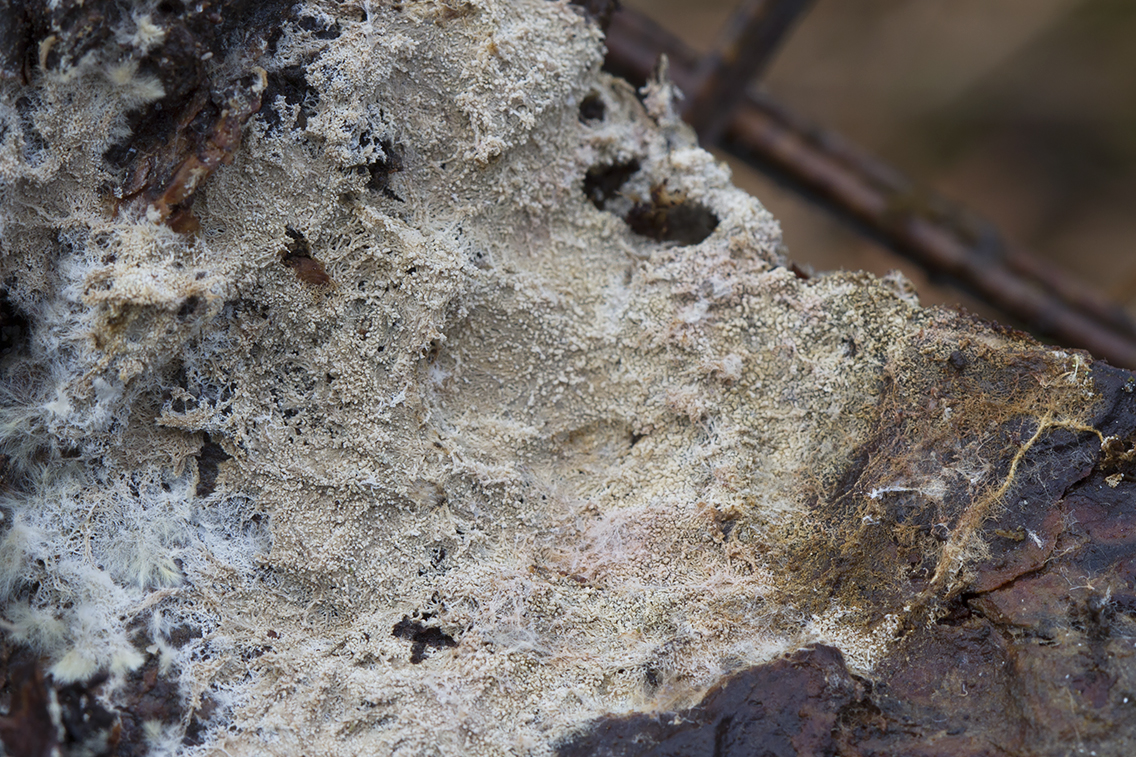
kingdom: Fungi
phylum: Basidiomycota
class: Agaricomycetes
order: Russulales
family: Xenasmataceae
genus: Xenasmatella
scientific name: Xenasmatella vaga
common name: svovl-strenghinde
